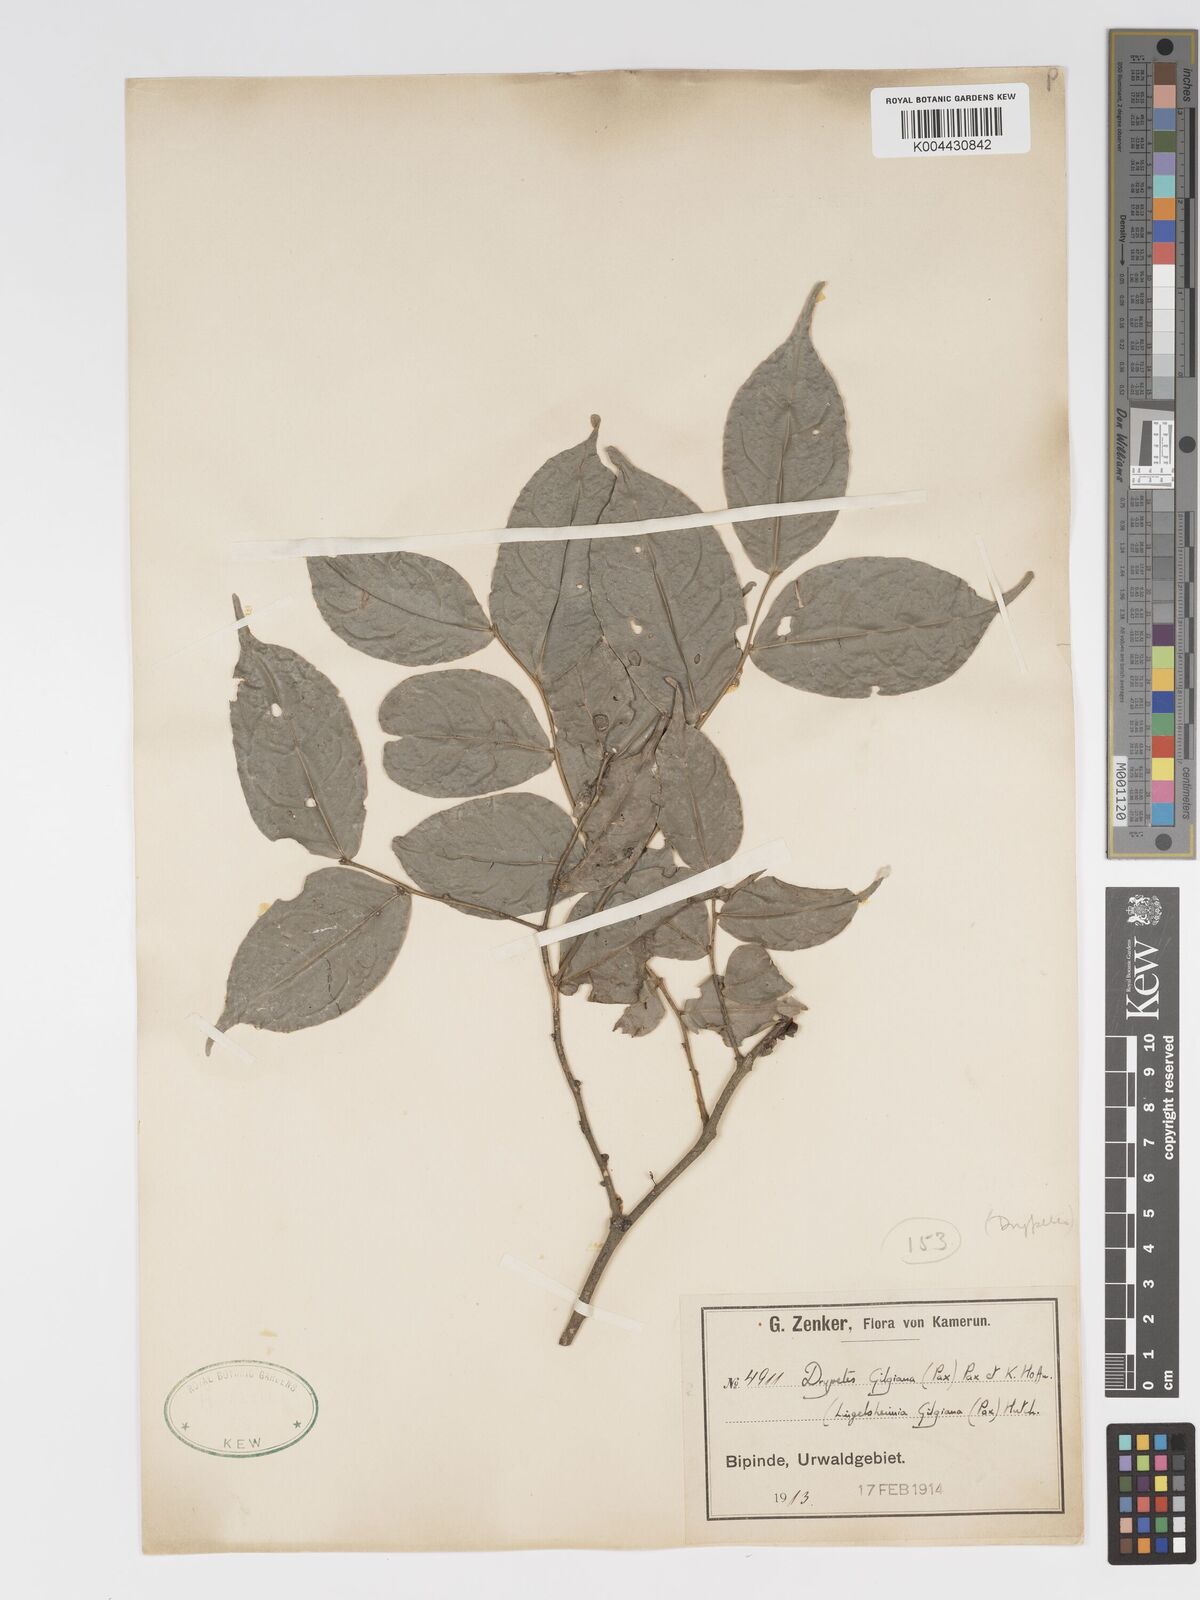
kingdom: Plantae
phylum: Tracheophyta
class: Magnoliopsida
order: Malpighiales
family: Putranjivaceae
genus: Drypetes
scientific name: Drypetes gilgiana
